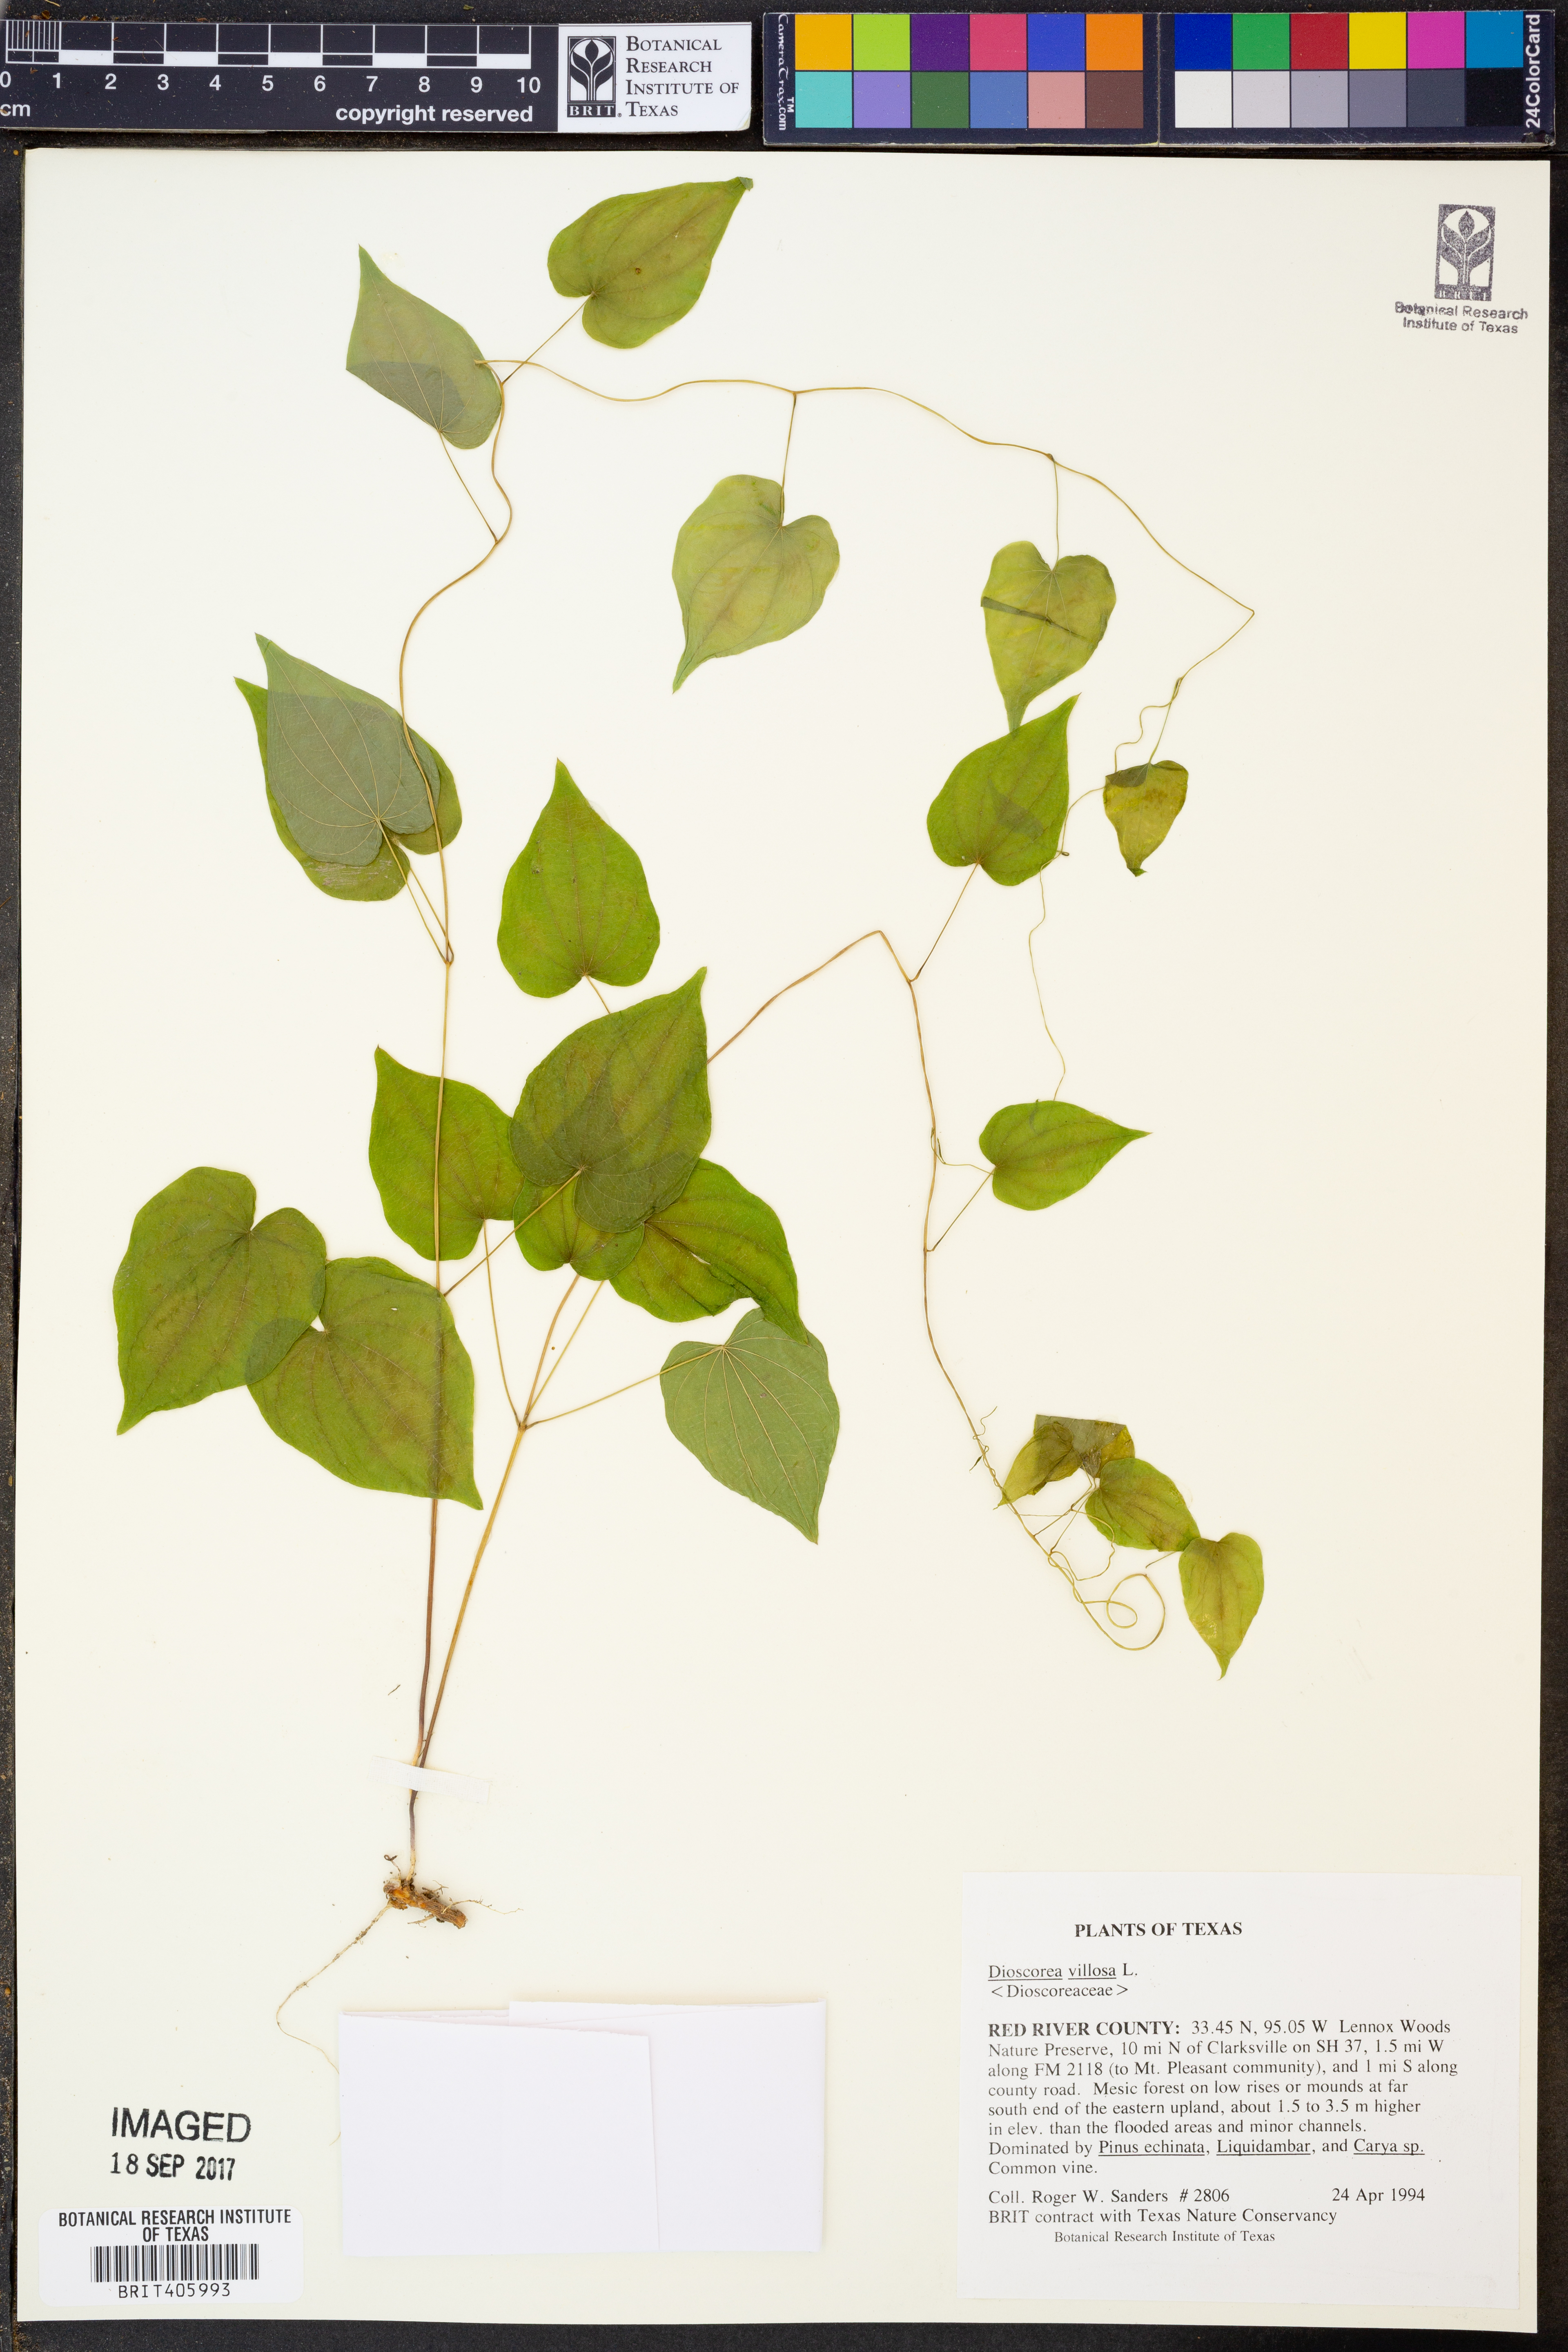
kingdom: Plantae
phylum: Tracheophyta
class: Liliopsida
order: Dioscoreales
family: Dioscoreaceae
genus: Dioscorea
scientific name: Dioscorea villosa
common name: Wild yam
